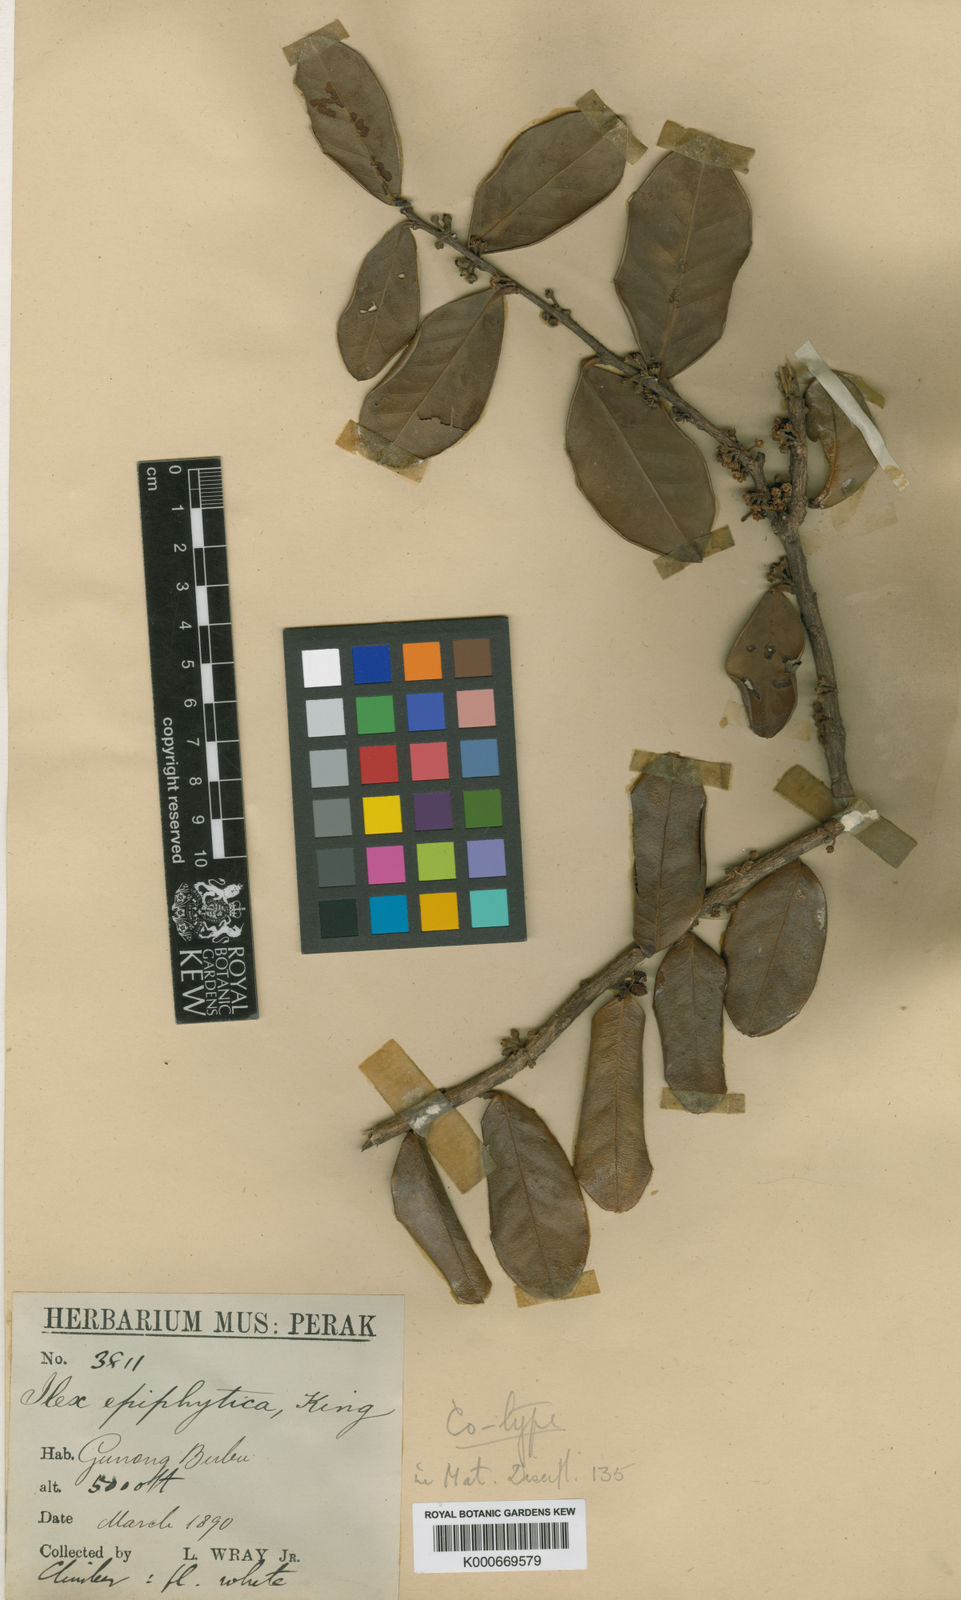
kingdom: Plantae
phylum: Tracheophyta
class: Magnoliopsida
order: Aquifoliales
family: Aquifoliaceae
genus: Ilex
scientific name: Ilex epiphytica
